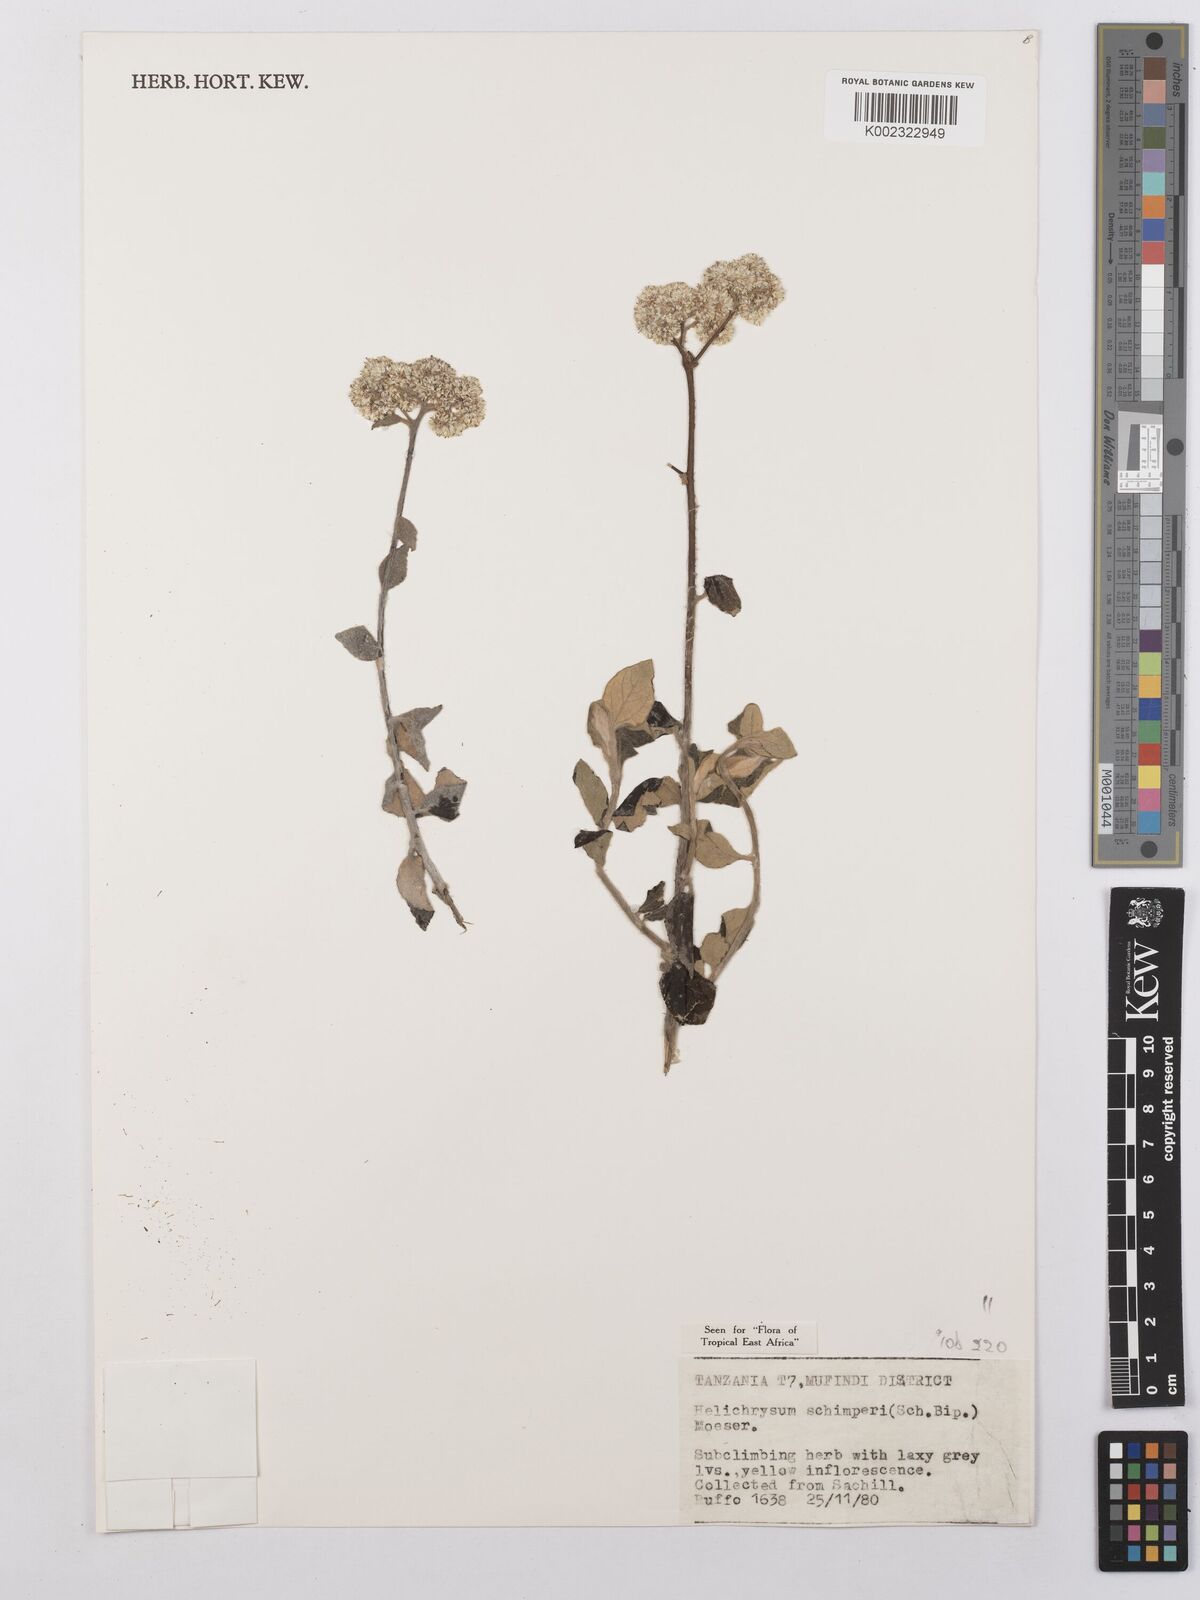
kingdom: Plantae
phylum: Tracheophyta
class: Magnoliopsida
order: Asterales
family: Asteraceae
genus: Helichrysum
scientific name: Helichrysum schimperi
